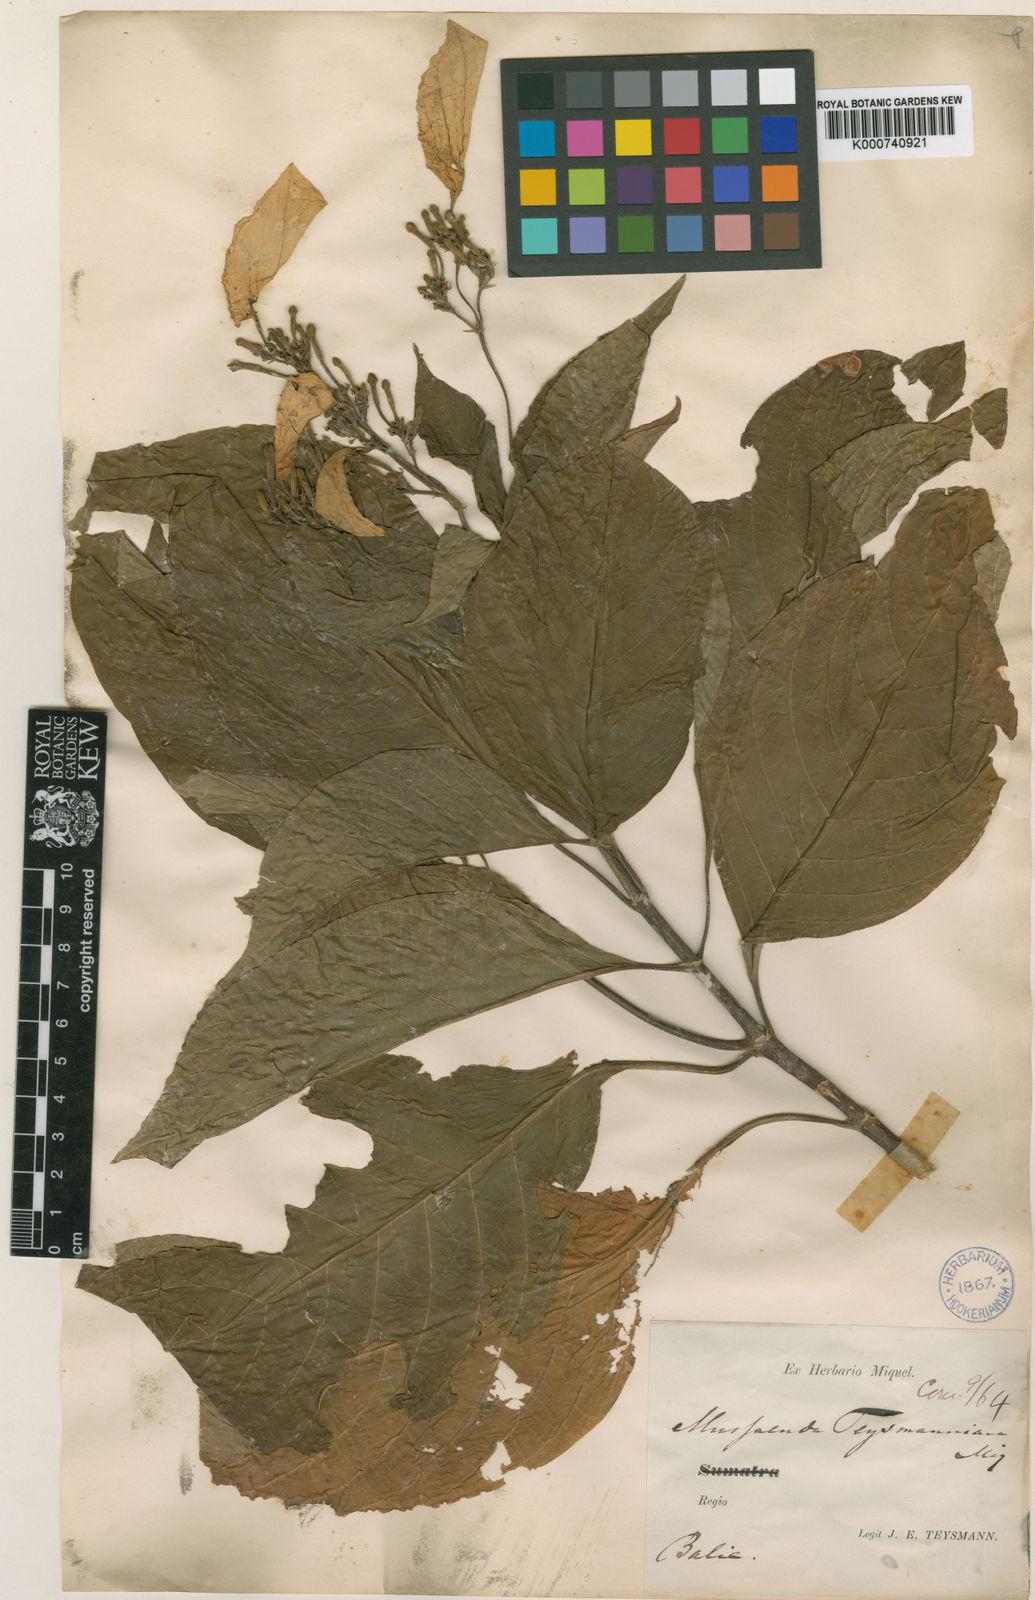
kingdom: Plantae
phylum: Tracheophyta
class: Magnoliopsida
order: Gentianales
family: Rubiaceae
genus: Mussaenda
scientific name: Mussaenda teysmanniana
